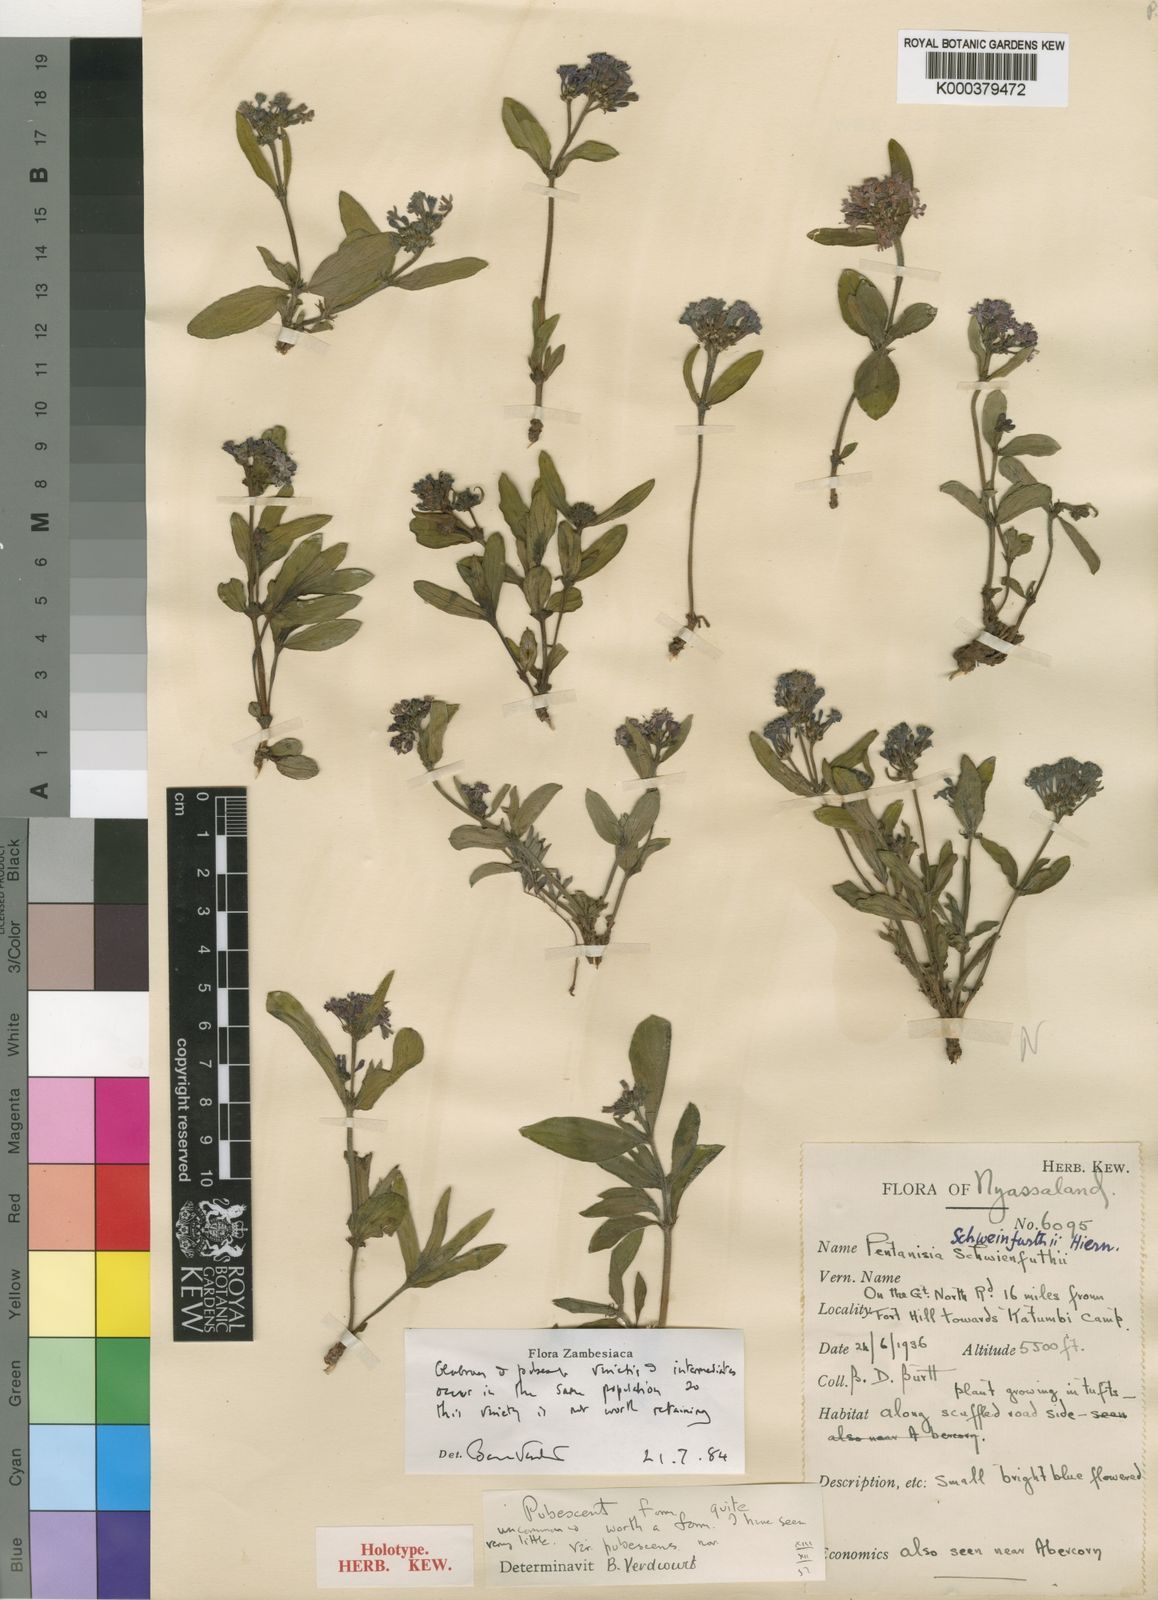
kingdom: Plantae
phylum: Tracheophyta
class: Magnoliopsida
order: Gentianales
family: Rubiaceae
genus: Pentanisia
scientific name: Pentanisia schweinfurthii
